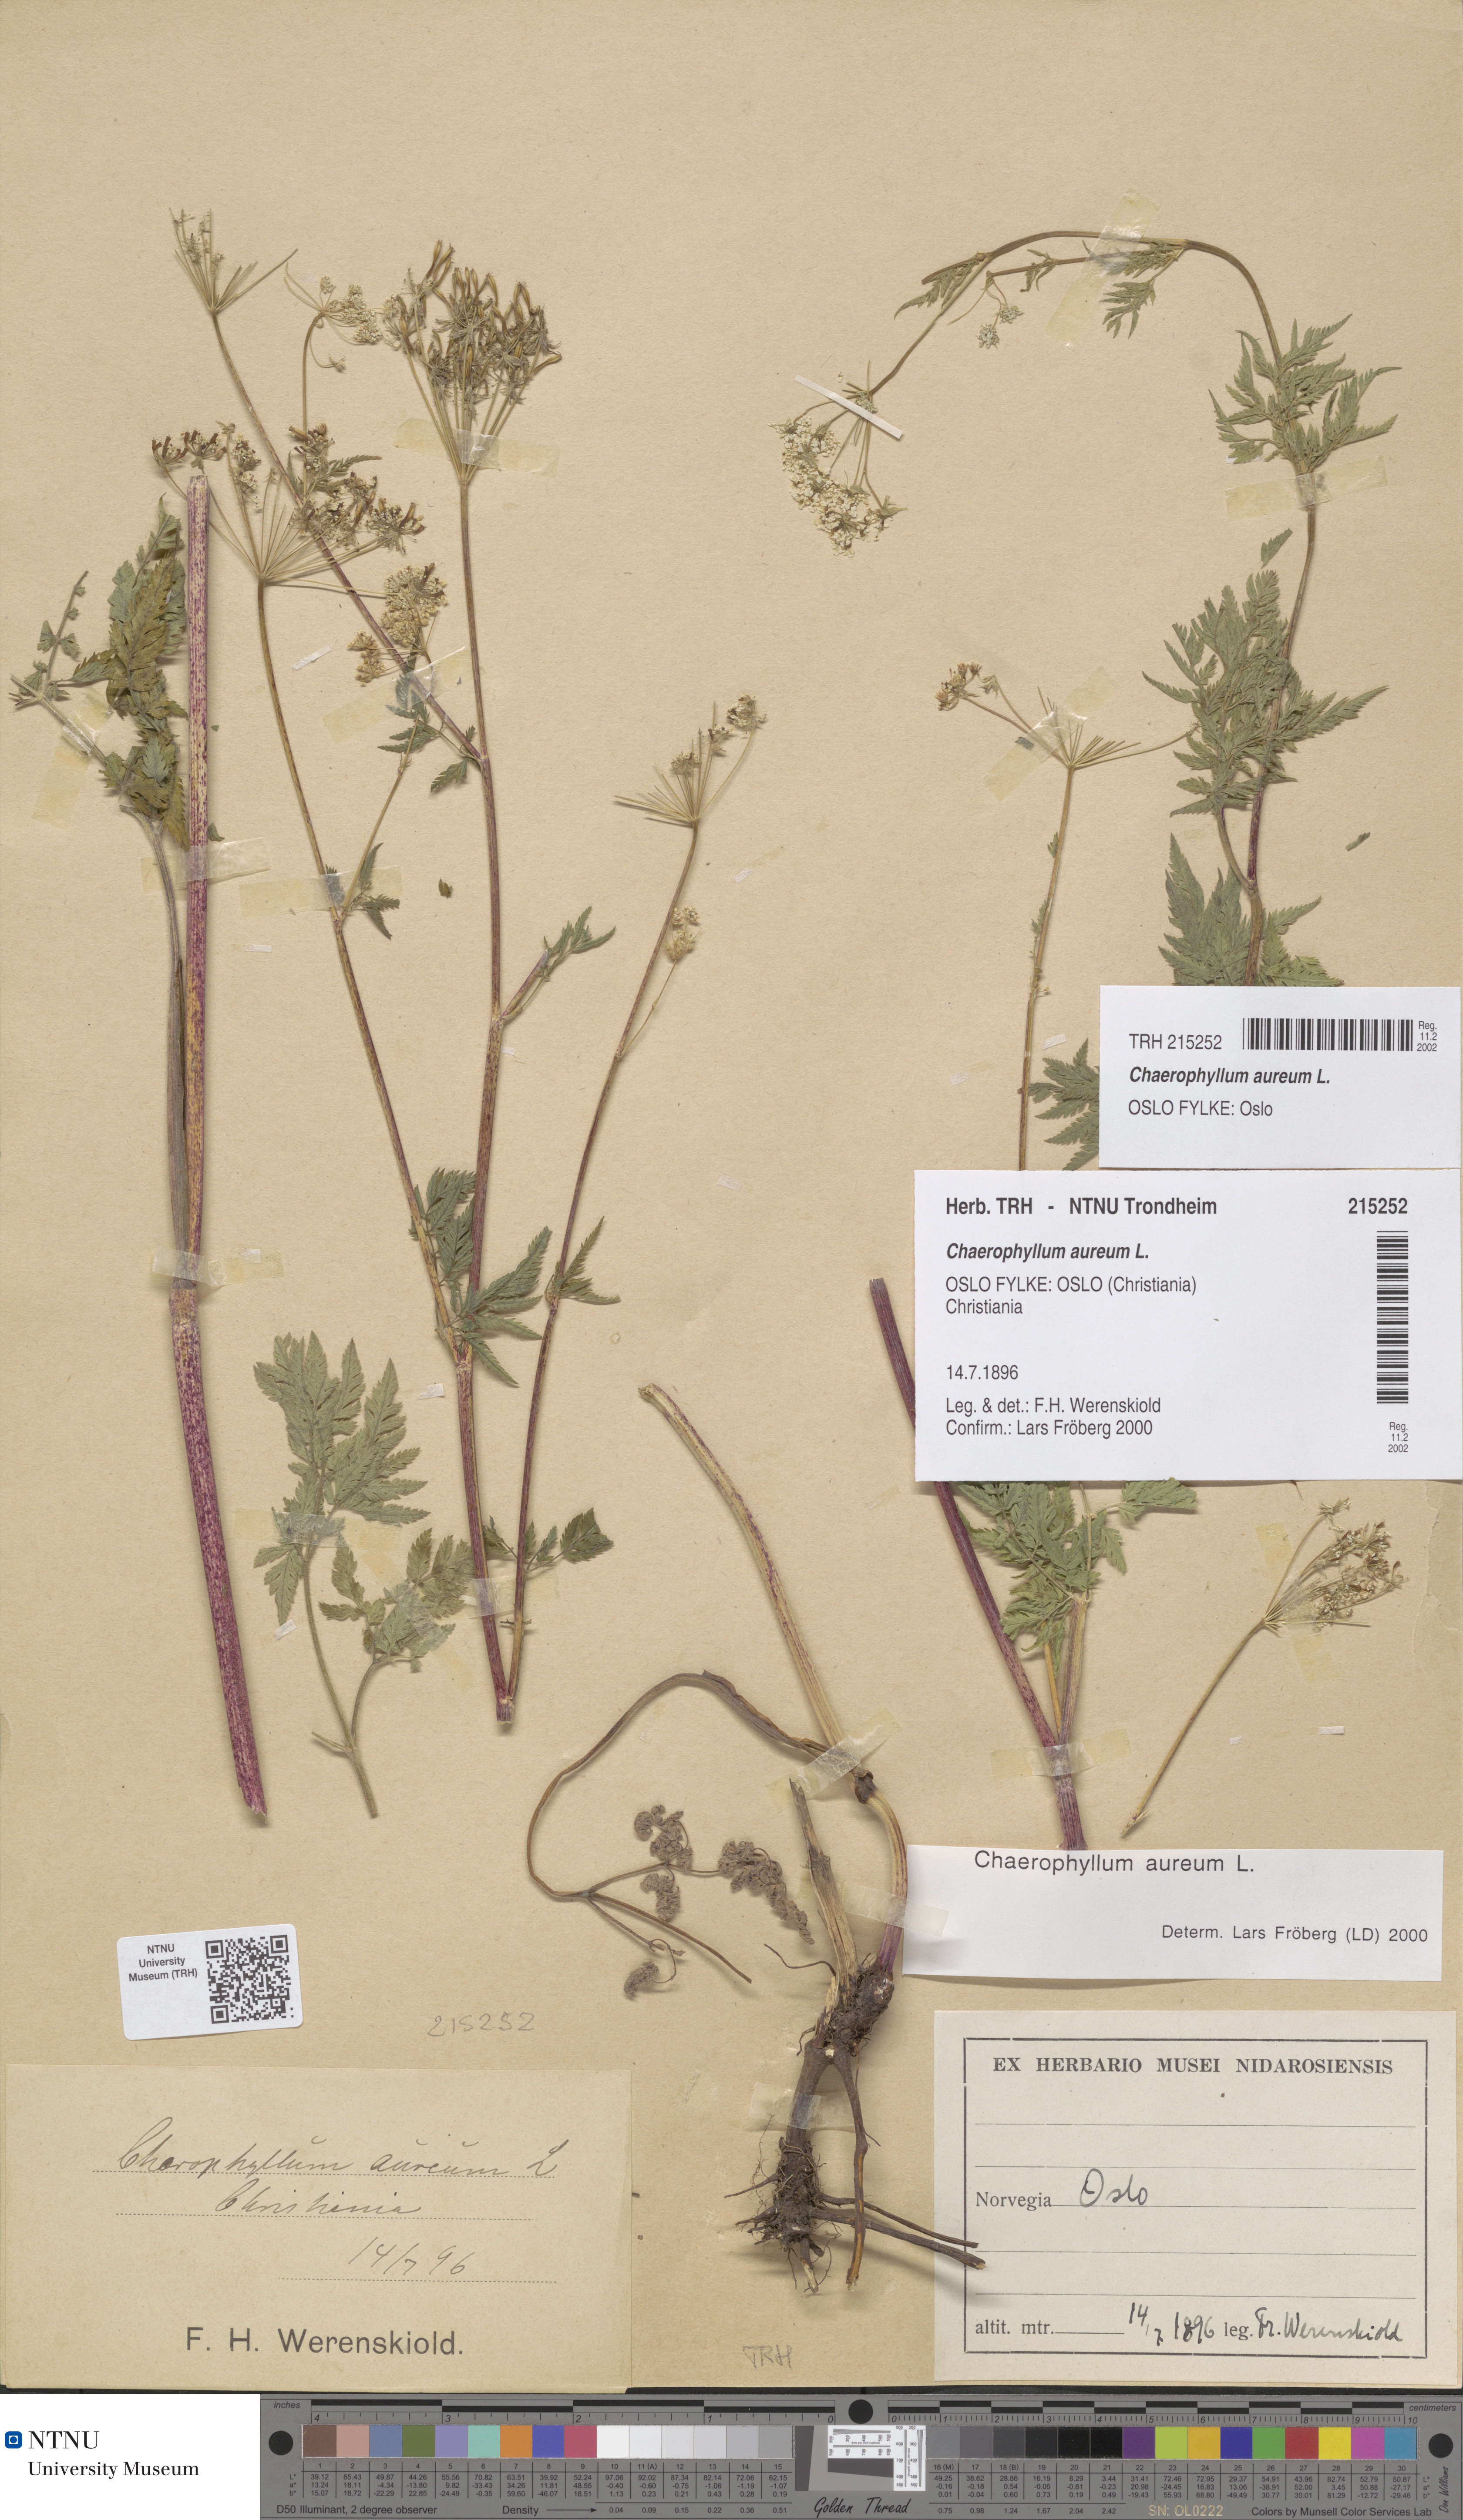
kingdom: Plantae
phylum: Tracheophyta
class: Magnoliopsida
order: Apiales
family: Apiaceae
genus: Chaerophyllum
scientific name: Chaerophyllum aureum
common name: Golden chervil
